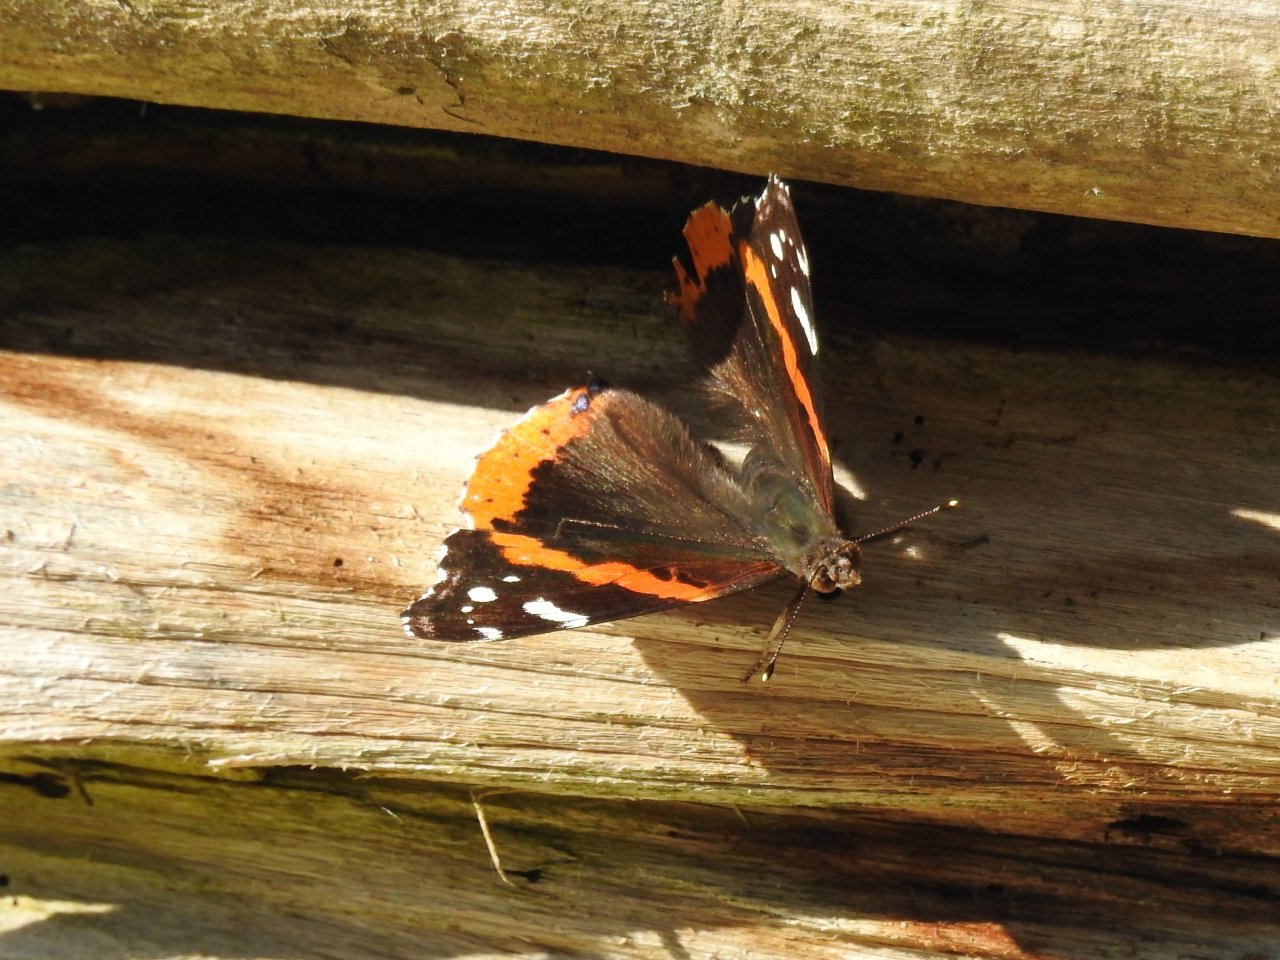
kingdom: Animalia
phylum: Arthropoda
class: Insecta
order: Lepidoptera
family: Nymphalidae
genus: Vanessa
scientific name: Vanessa atalanta
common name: Red Admiral
